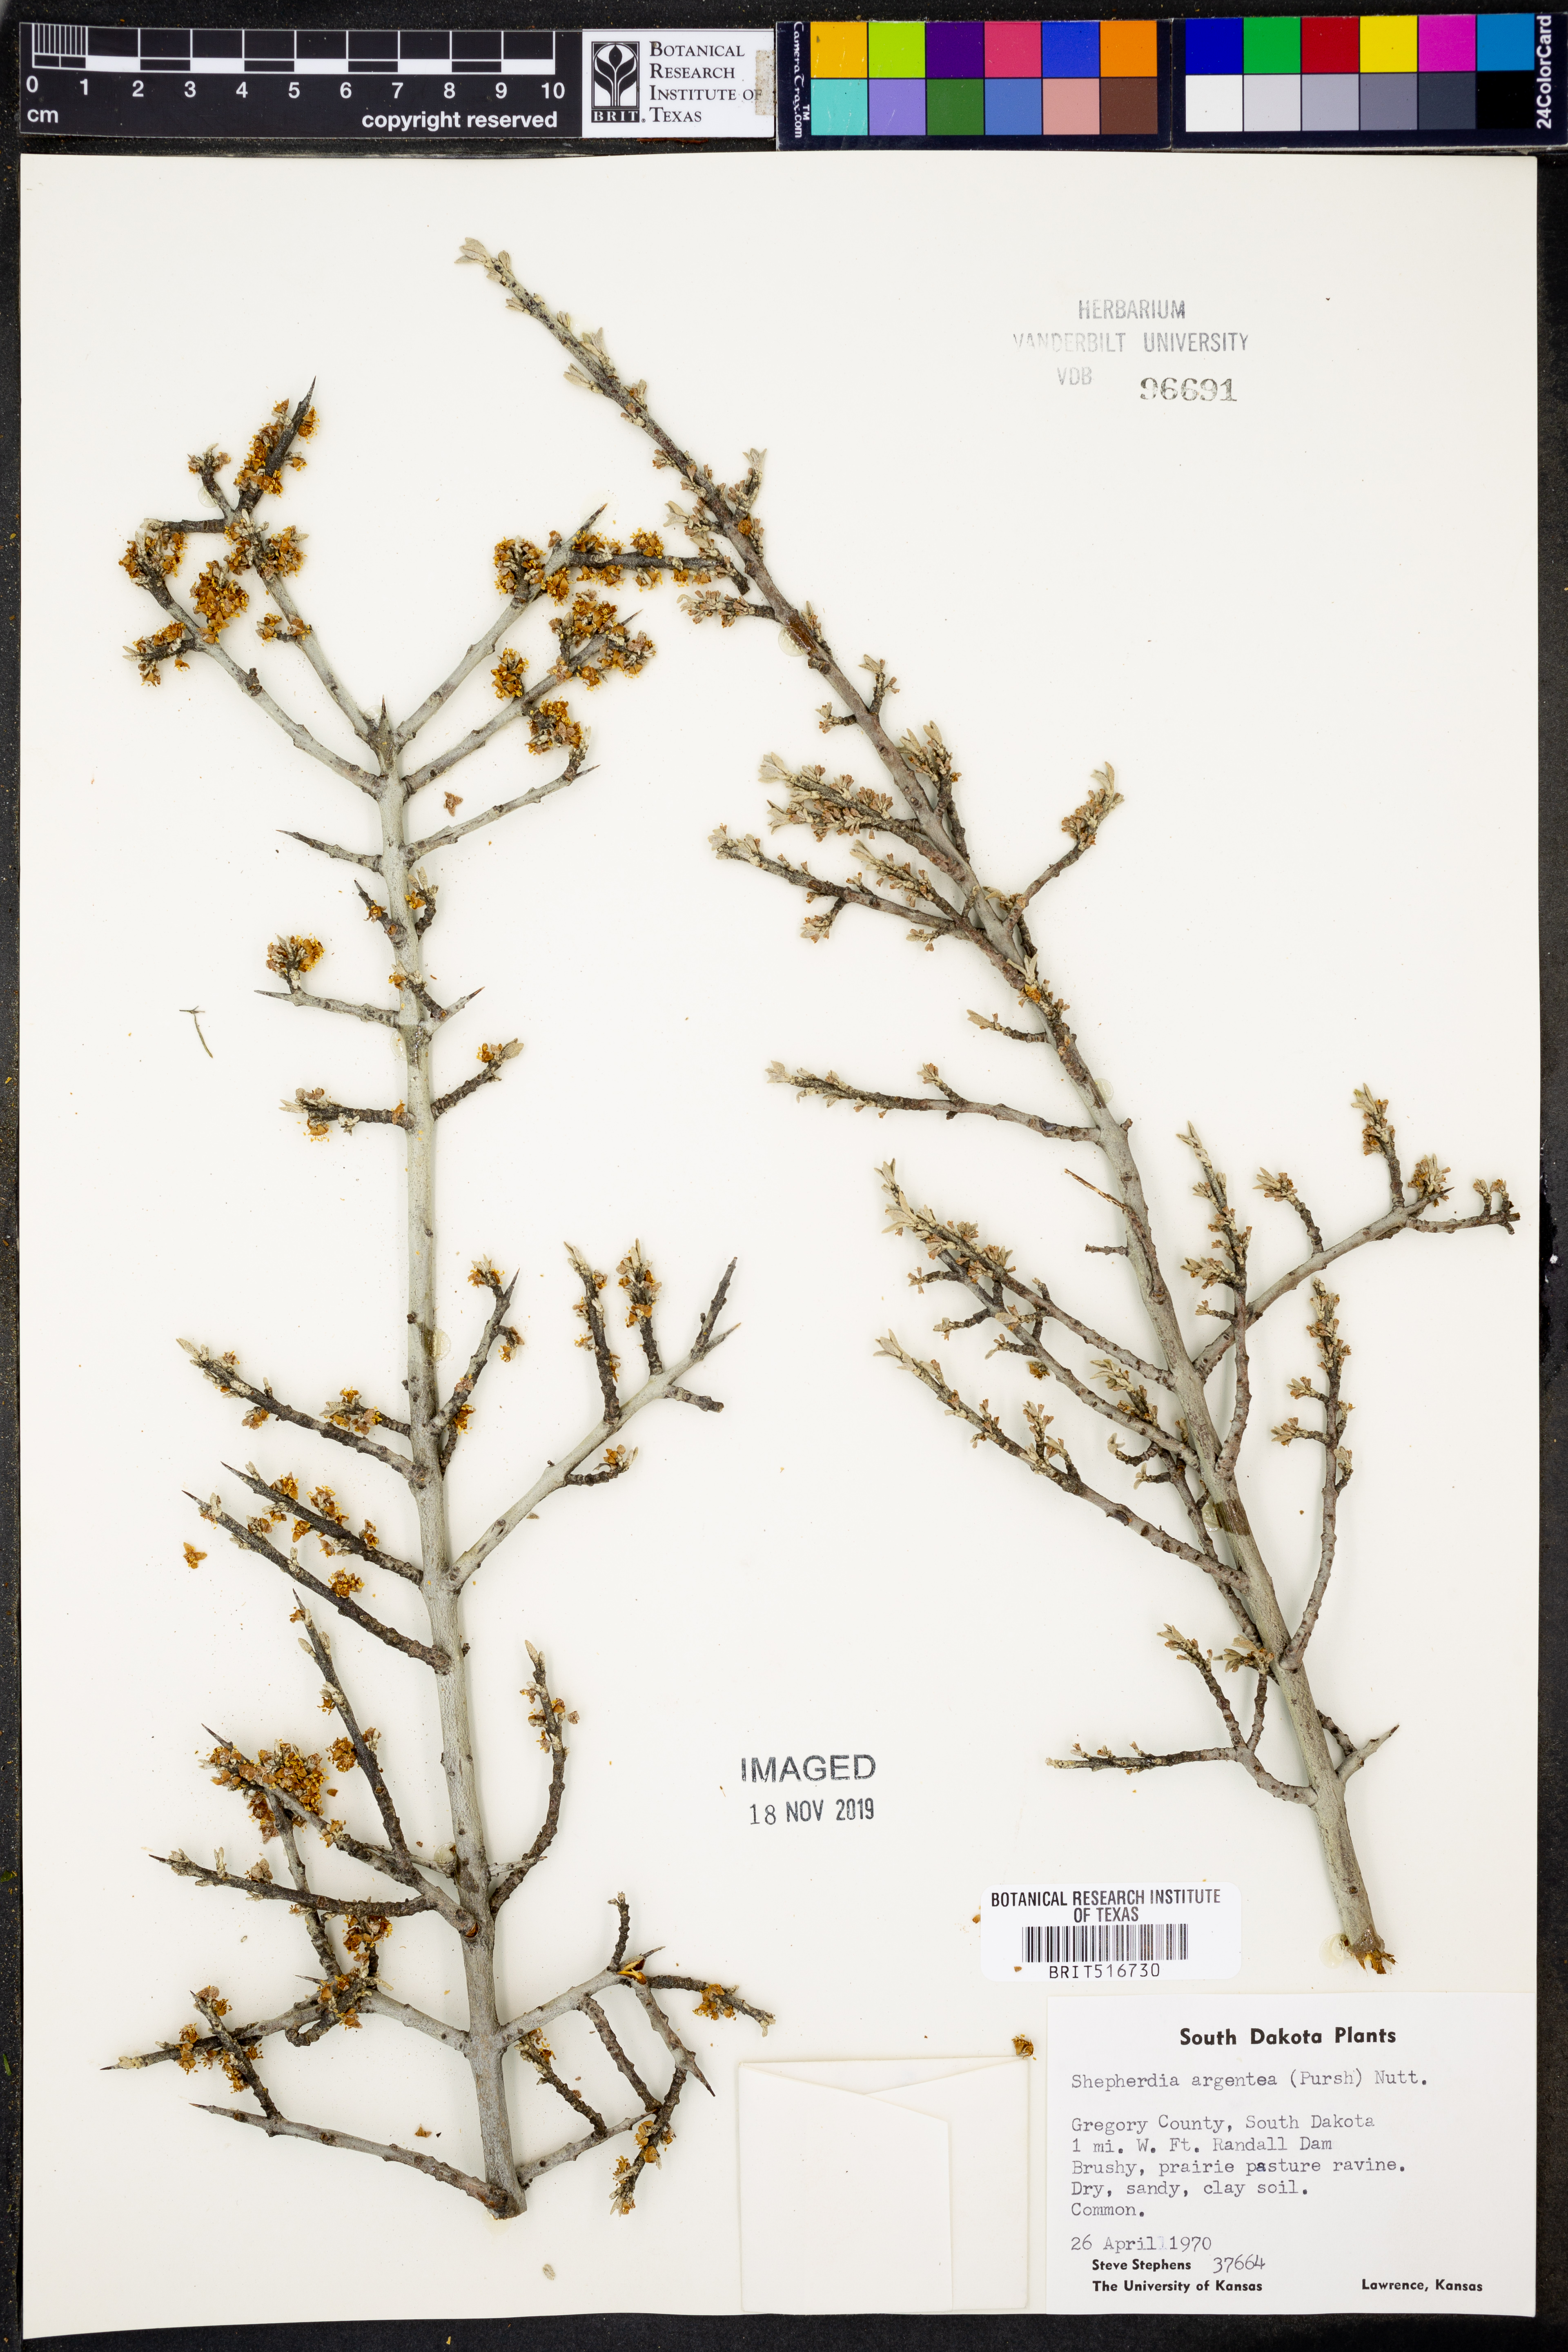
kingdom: Plantae
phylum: Tracheophyta
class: Magnoliopsida
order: Rosales
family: Elaeagnaceae
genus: Shepherdia
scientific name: Shepherdia argentea
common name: Silver buffaloberry
